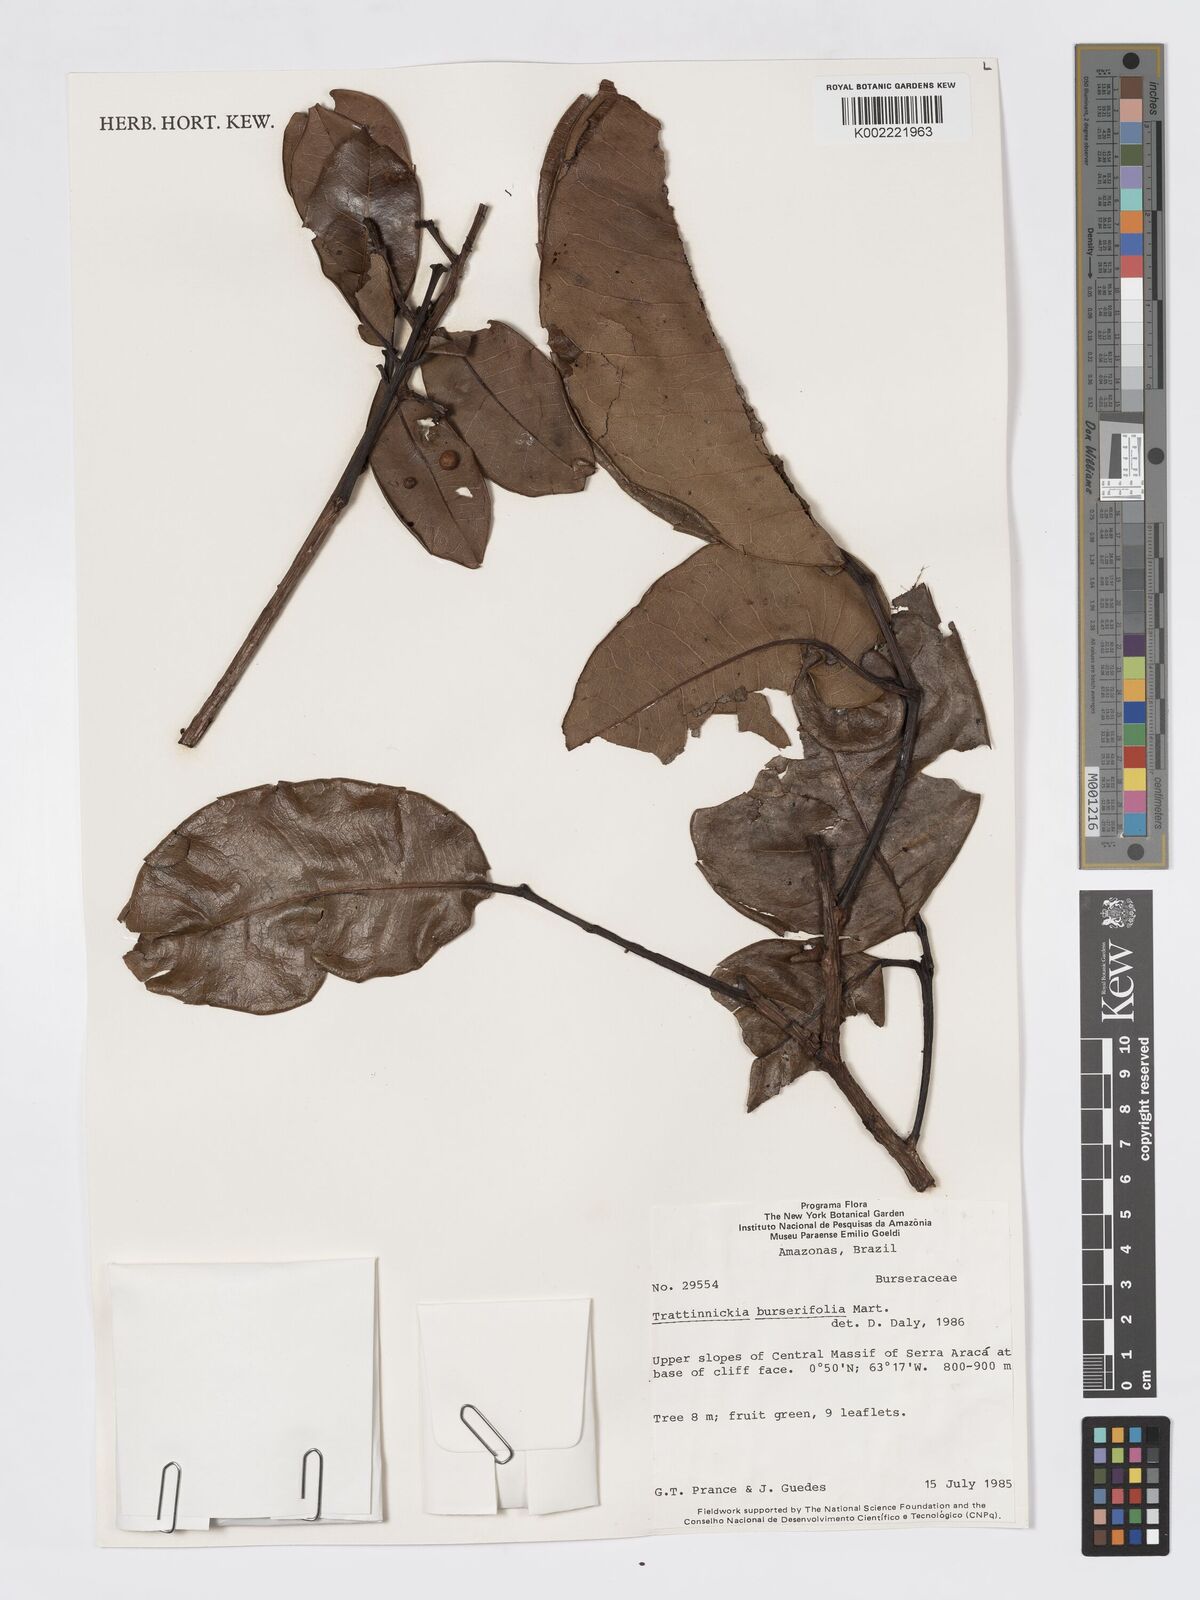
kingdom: Plantae
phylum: Tracheophyta
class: Magnoliopsida
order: Sapindales
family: Burseraceae
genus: Trattinnickia
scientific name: Trattinnickia burserifolia
